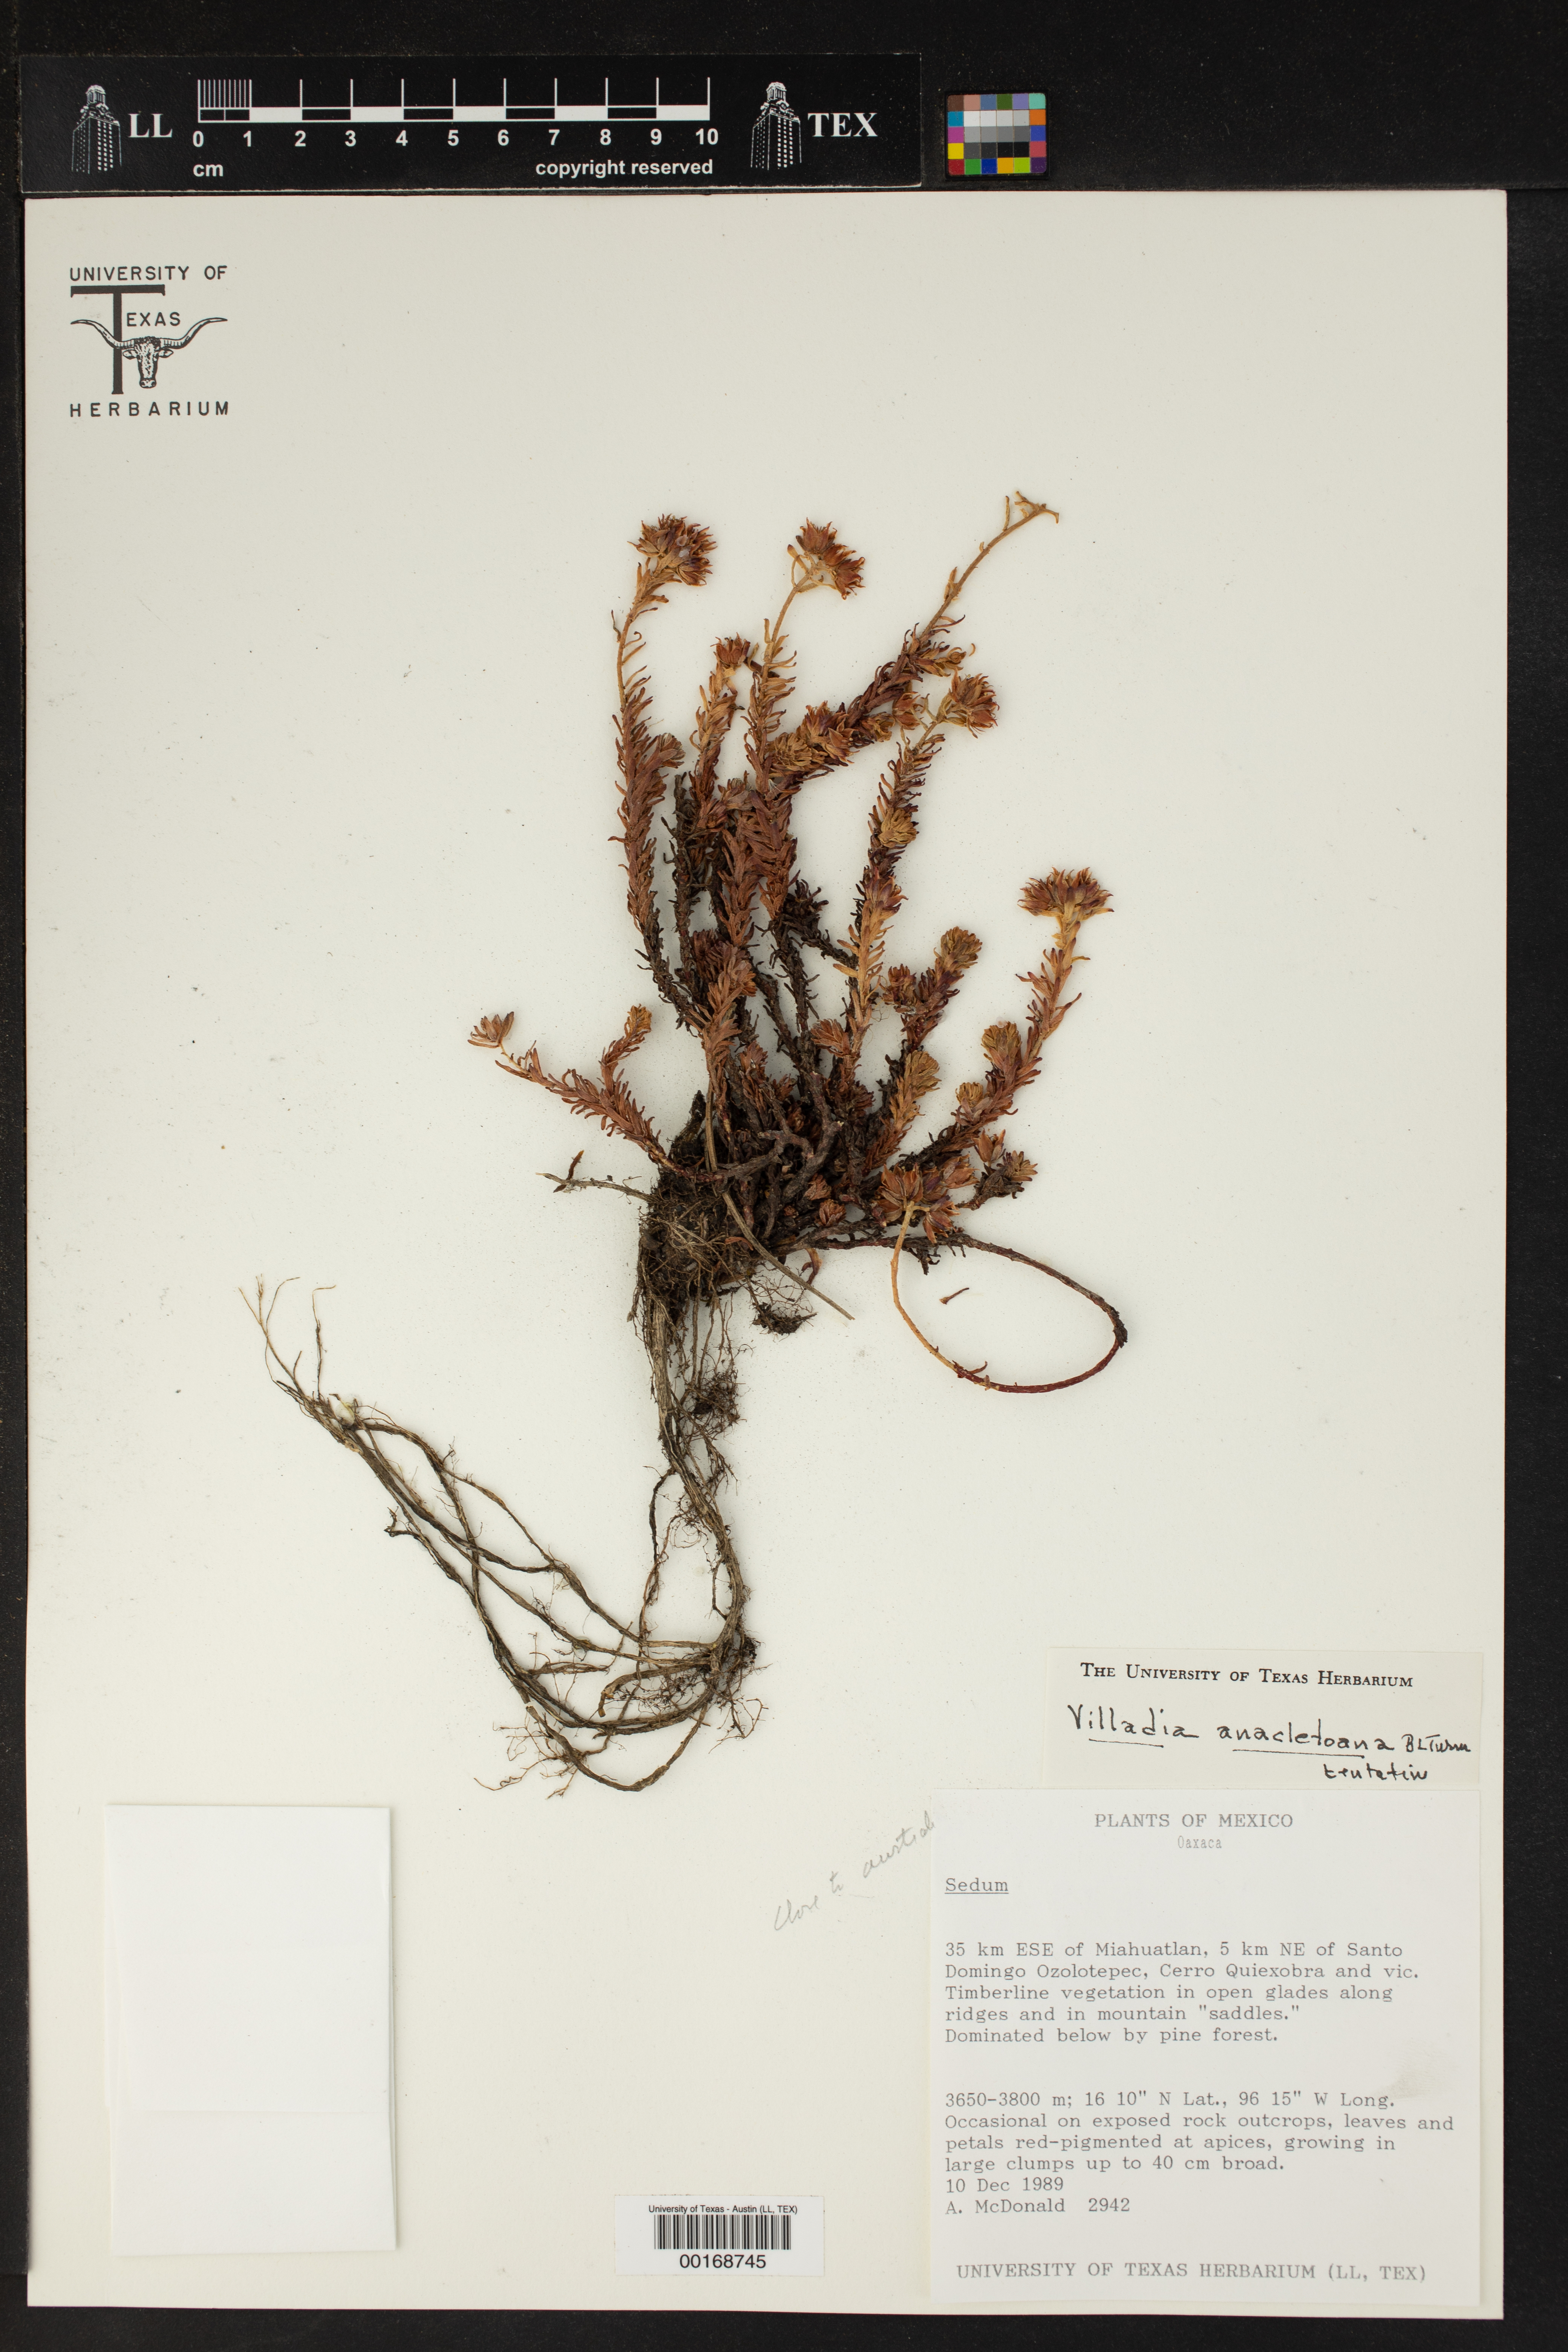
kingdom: Plantae
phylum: Tracheophyta
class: Magnoliopsida
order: Saxifragales
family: Crassulaceae
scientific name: Crassulaceae
